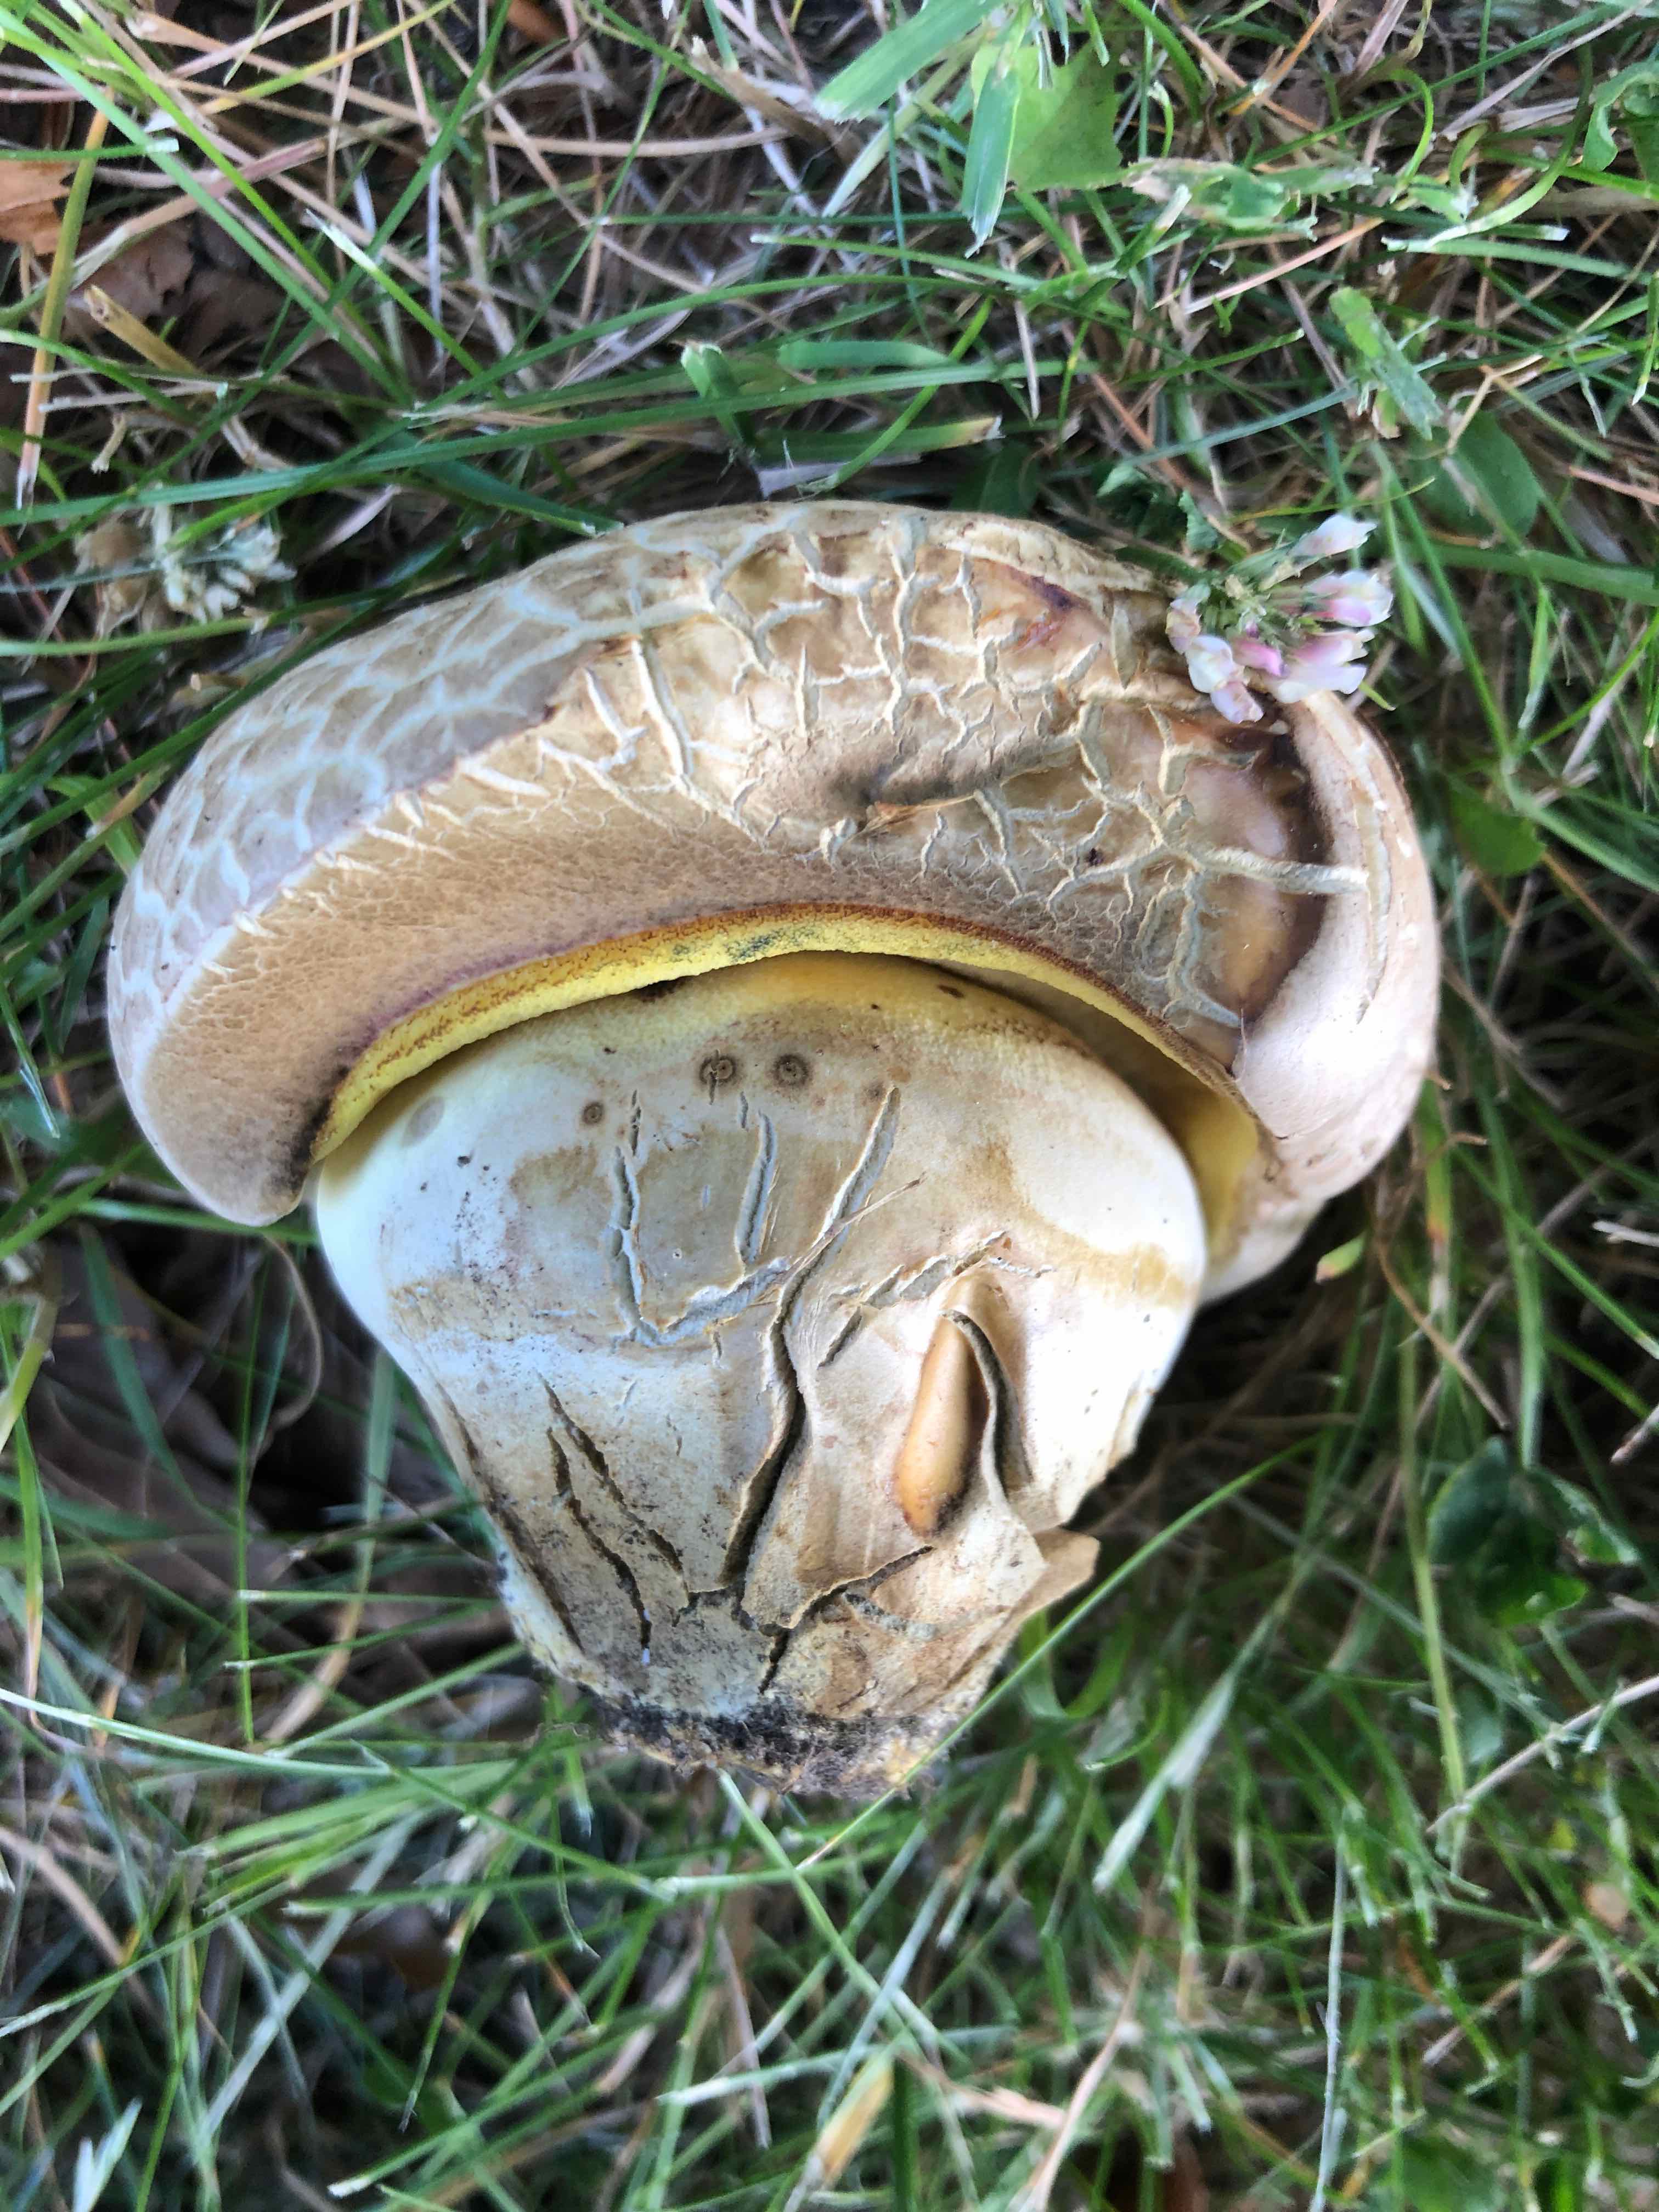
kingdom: Fungi
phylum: Basidiomycota
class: Agaricomycetes
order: Boletales
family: Boletaceae
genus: Caloboletus
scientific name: Caloboletus radicans
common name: rod-rørhat
